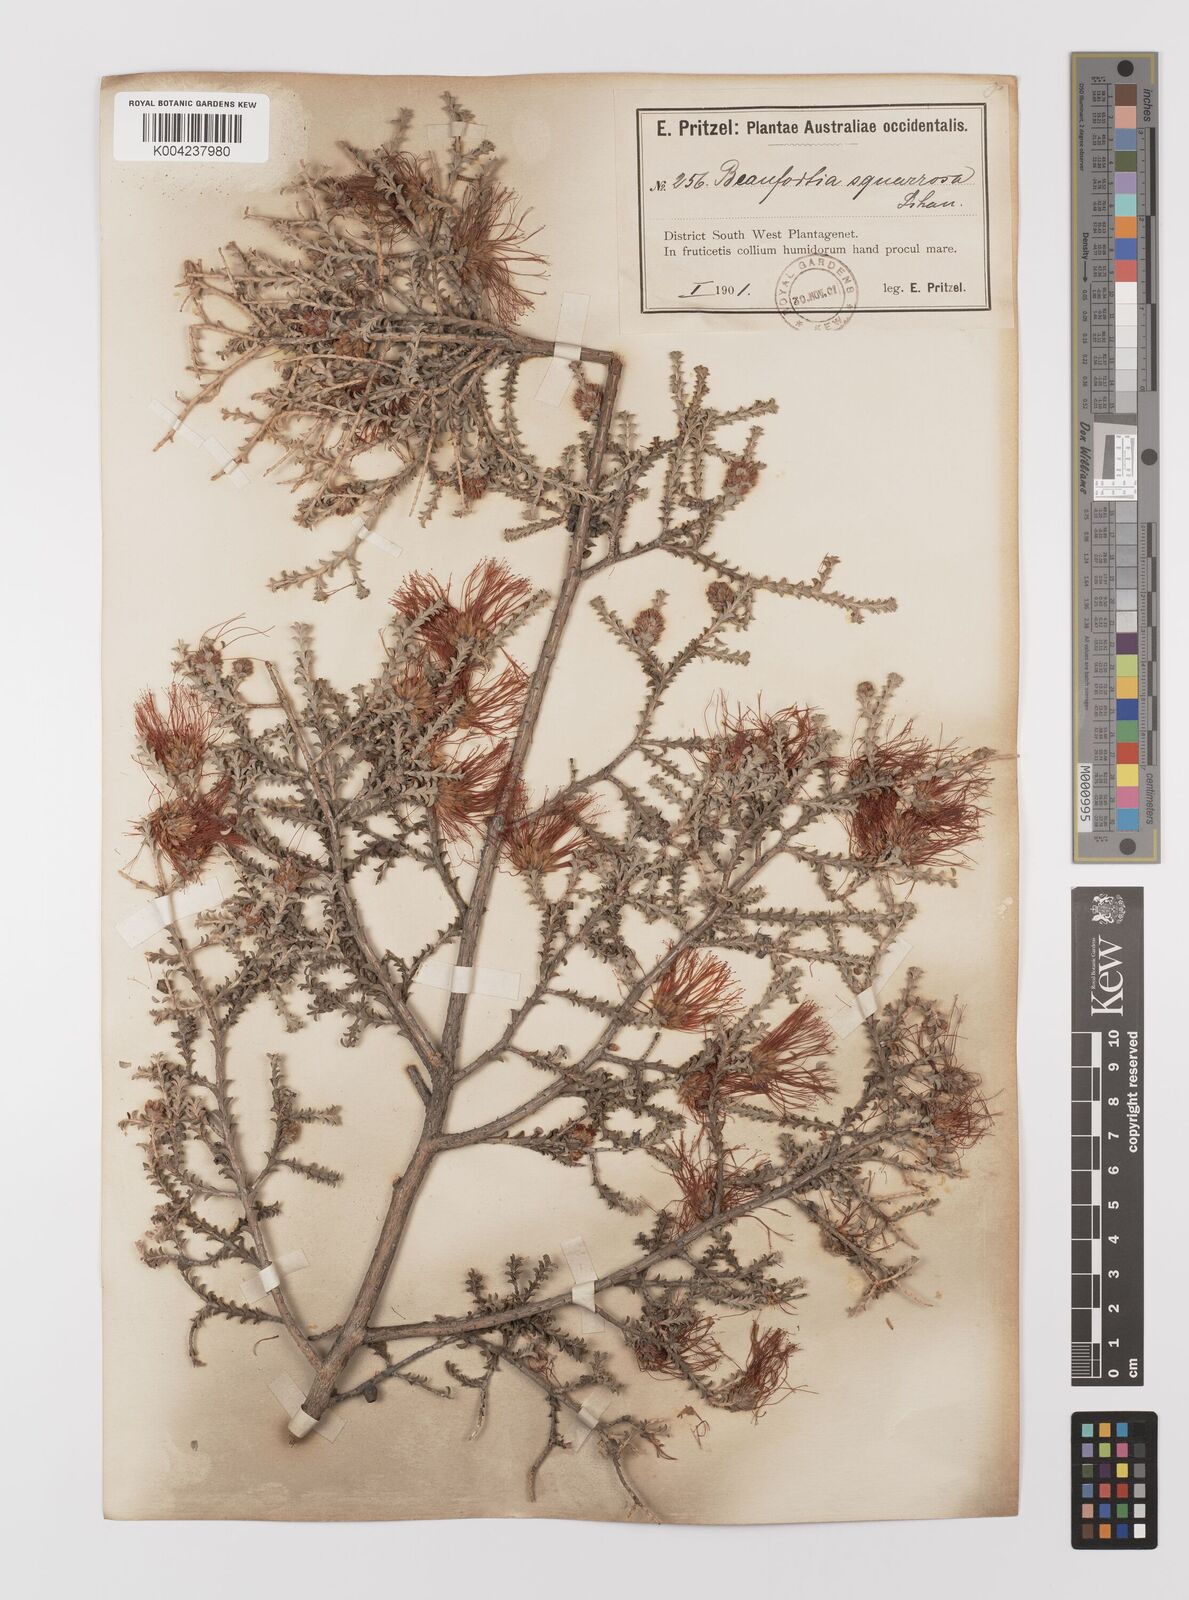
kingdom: Plantae
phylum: Tracheophyta
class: Magnoliopsida
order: Myrtales
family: Myrtaceae
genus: Melaleuca
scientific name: Melaleuca pulcherrima
